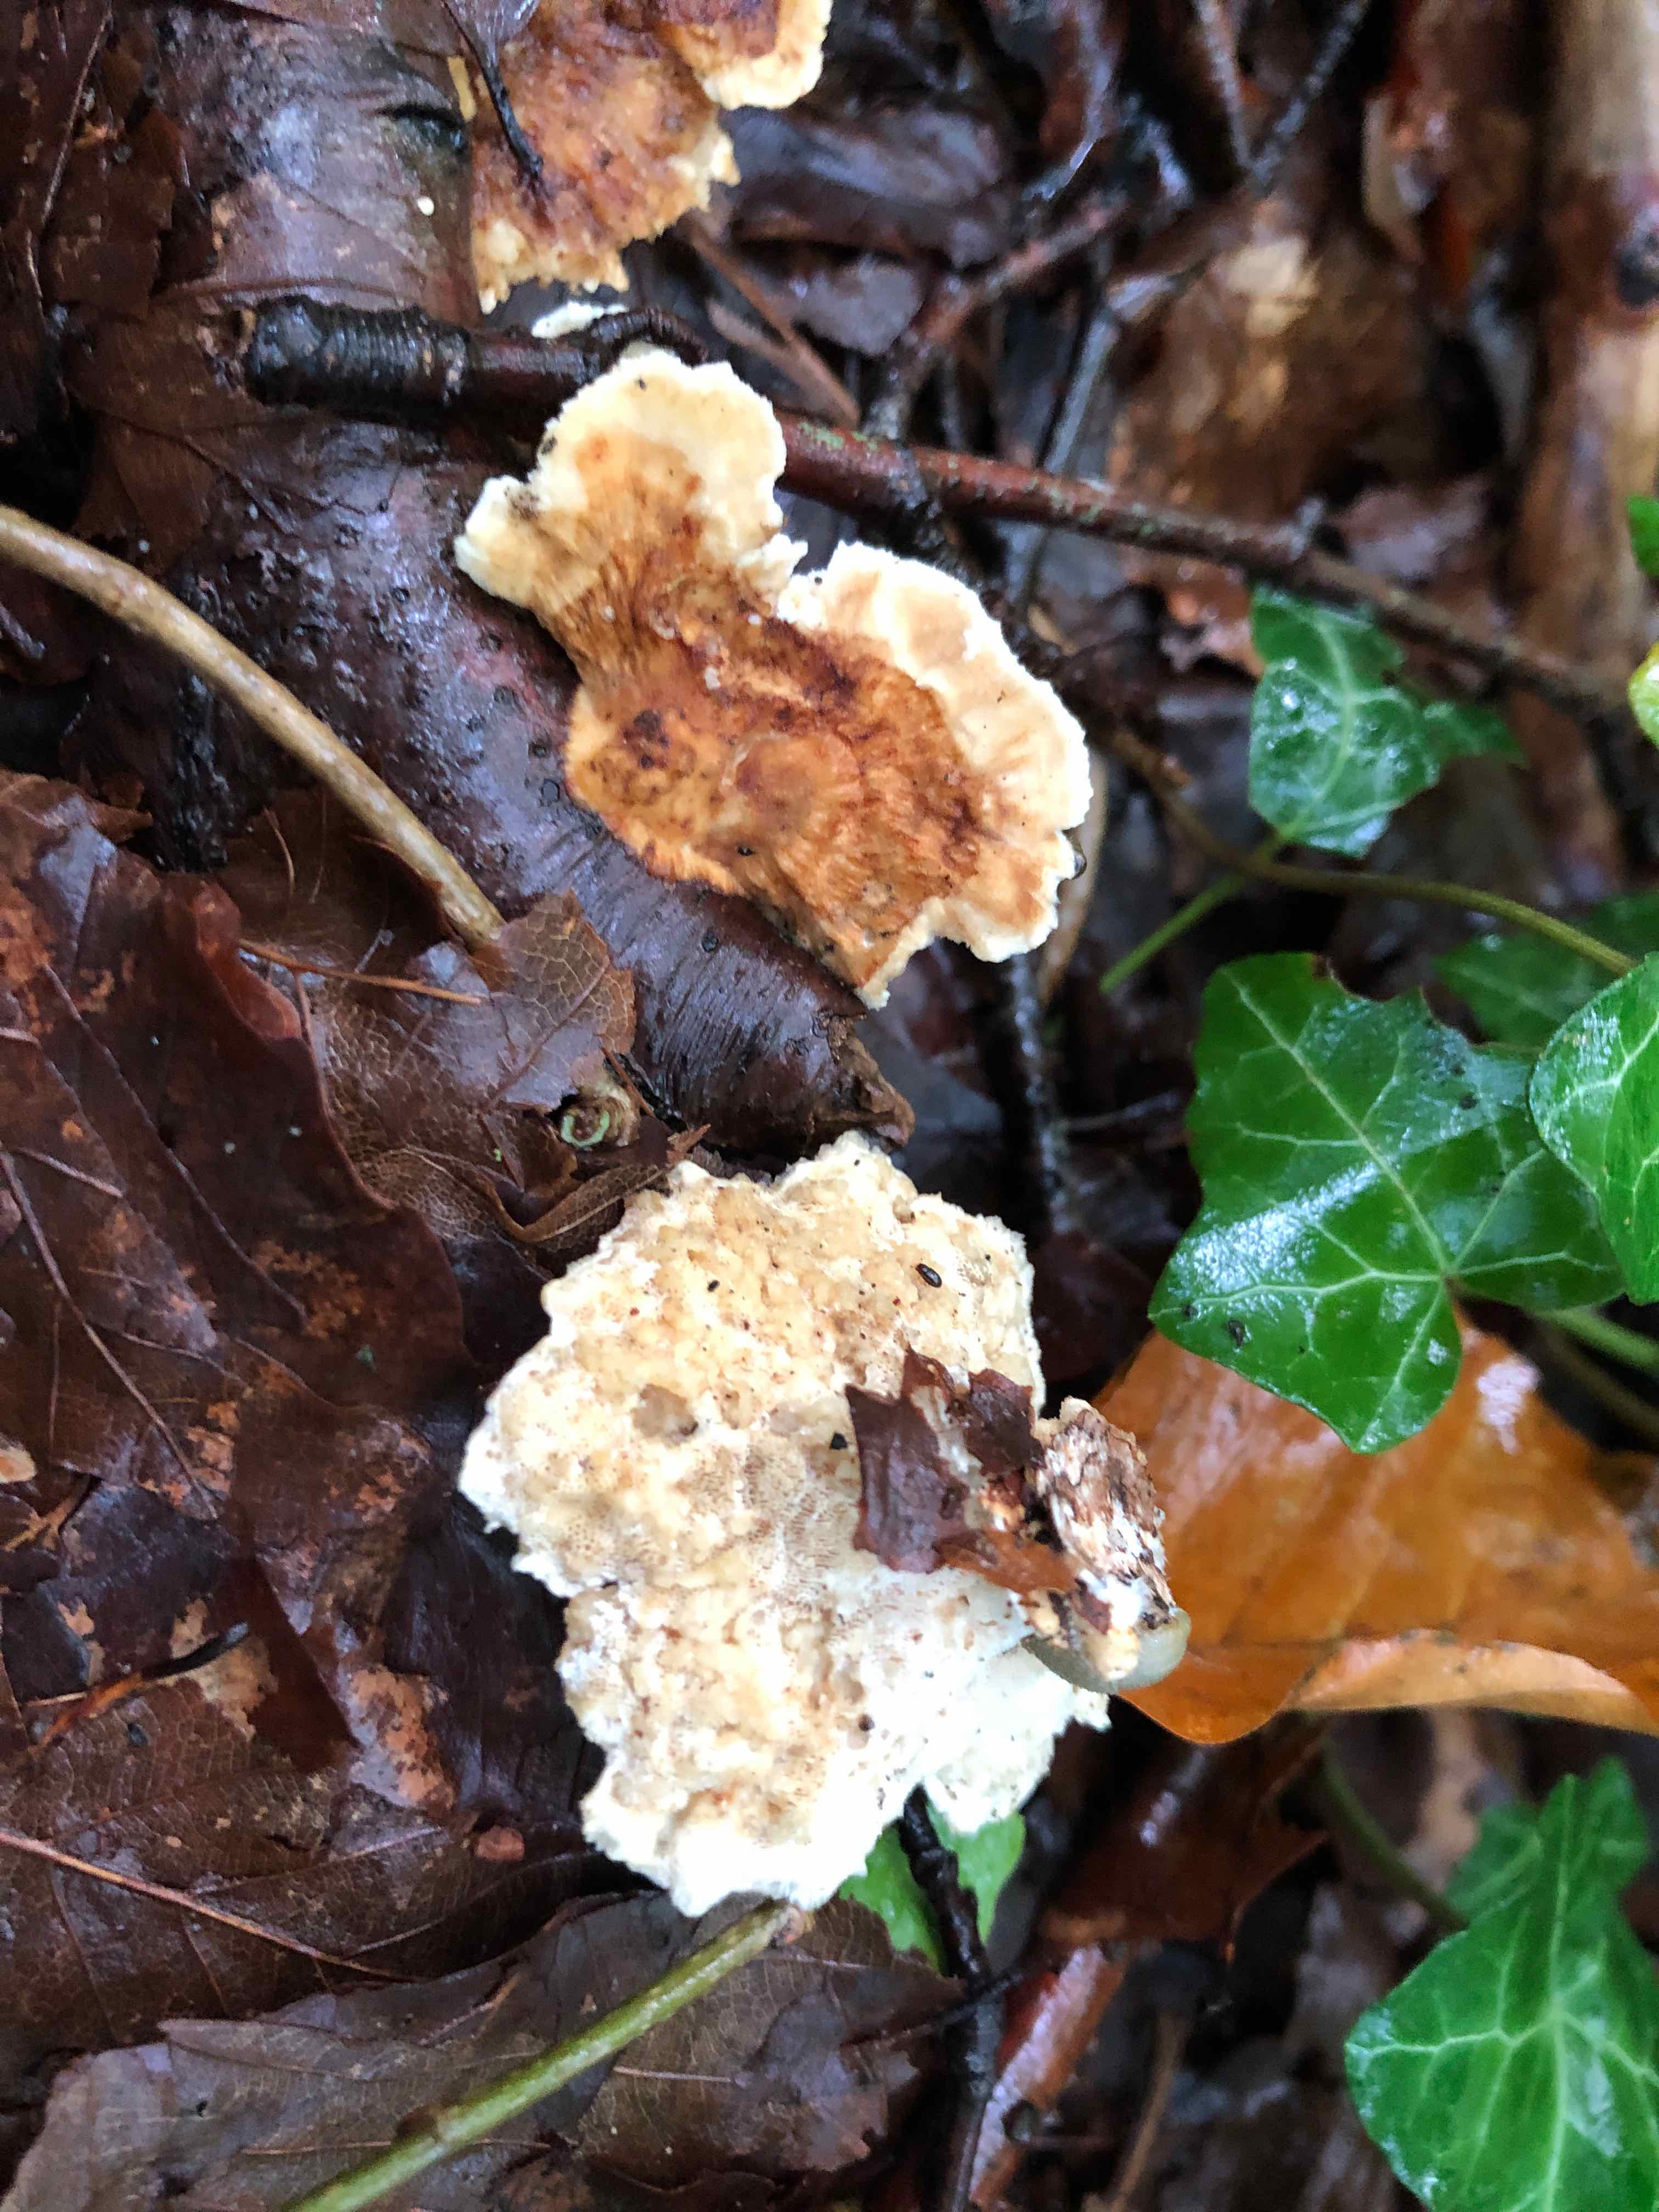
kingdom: Fungi
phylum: Basidiomycota
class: Agaricomycetes
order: Polyporales
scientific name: Polyporales
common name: poresvampordenen
